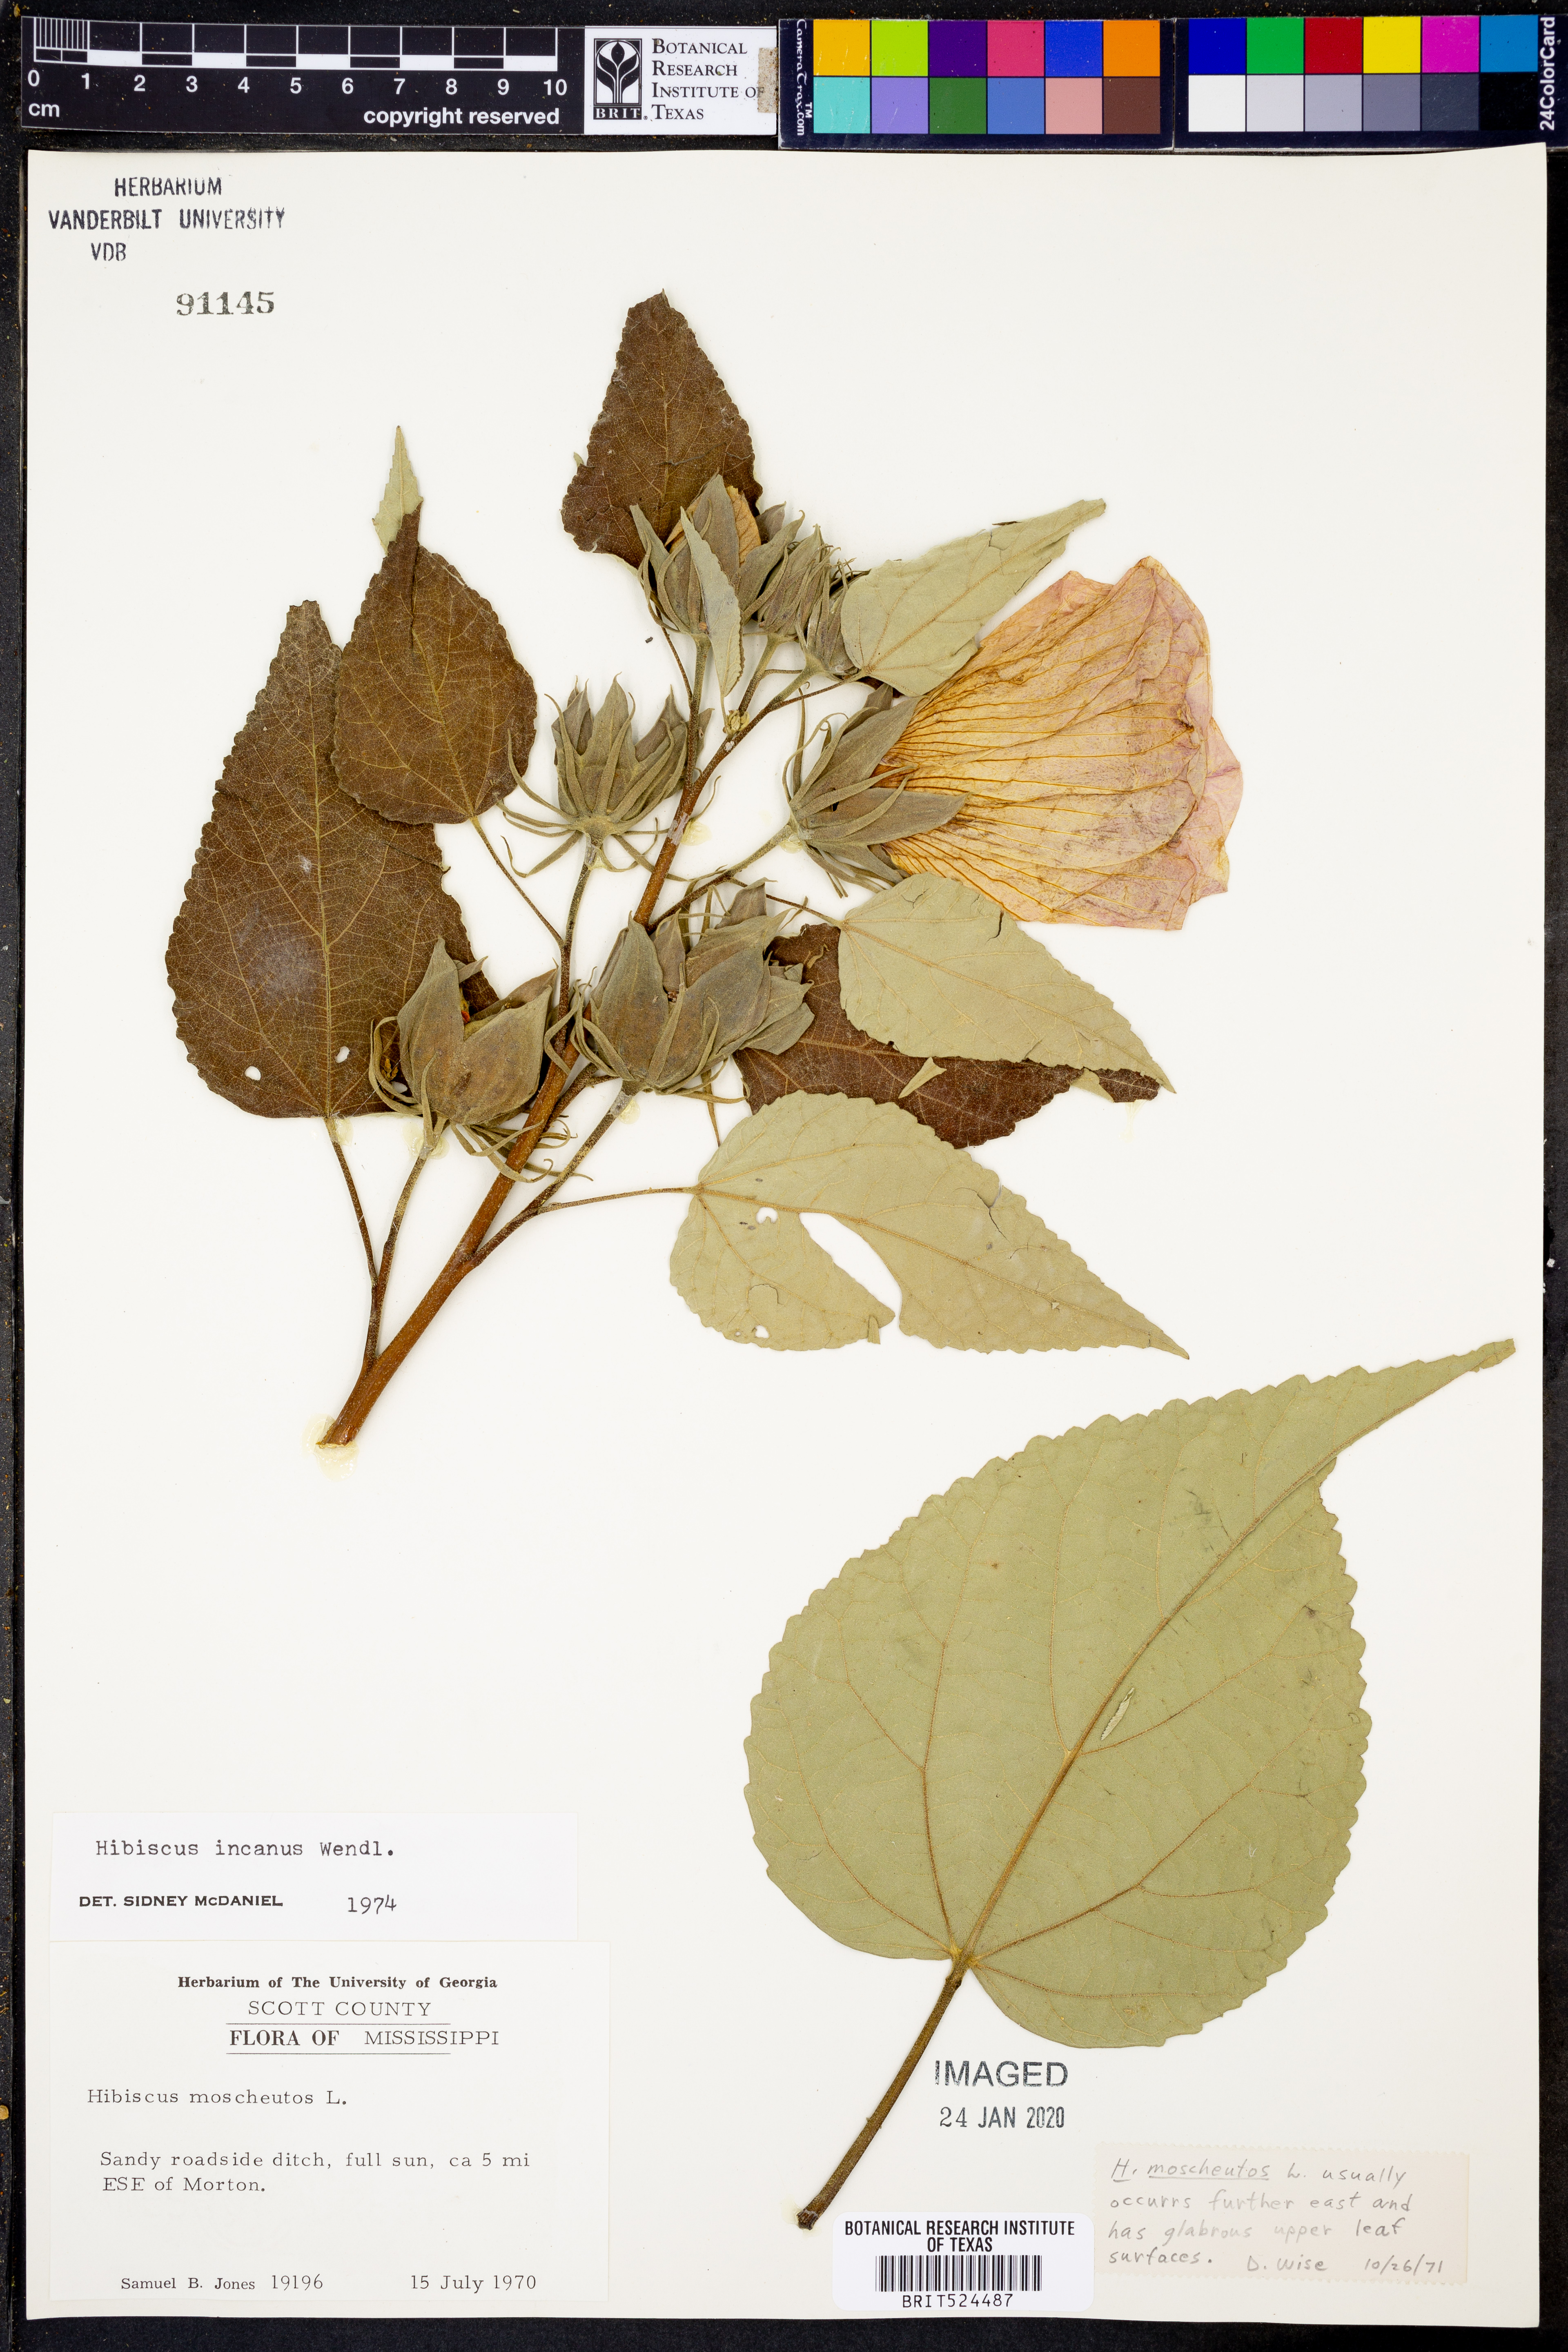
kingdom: Plantae
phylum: Tracheophyta
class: Magnoliopsida
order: Malvales
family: Malvaceae
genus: Hibiscus
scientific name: Hibiscus moscheutos
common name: Common rose-mallow
